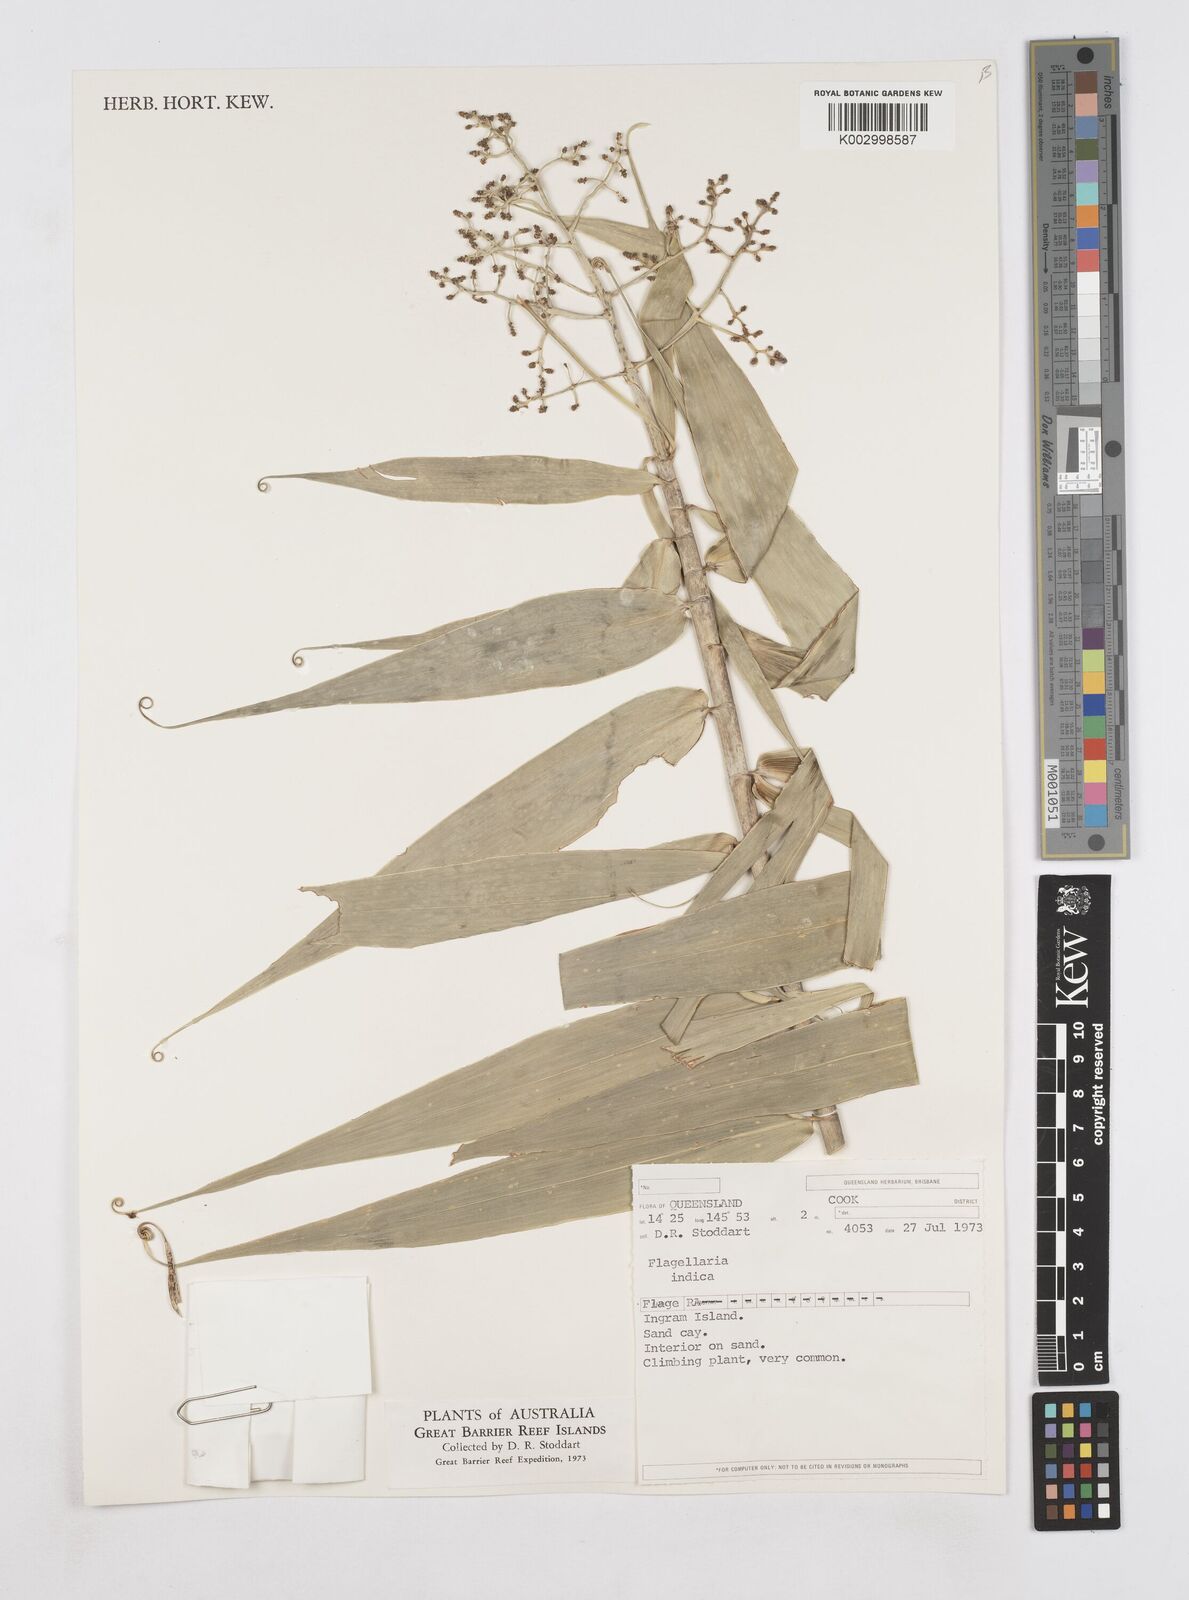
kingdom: Plantae
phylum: Tracheophyta
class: Liliopsida
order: Poales
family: Flagellariaceae
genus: Flagellaria
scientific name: Flagellaria indica
